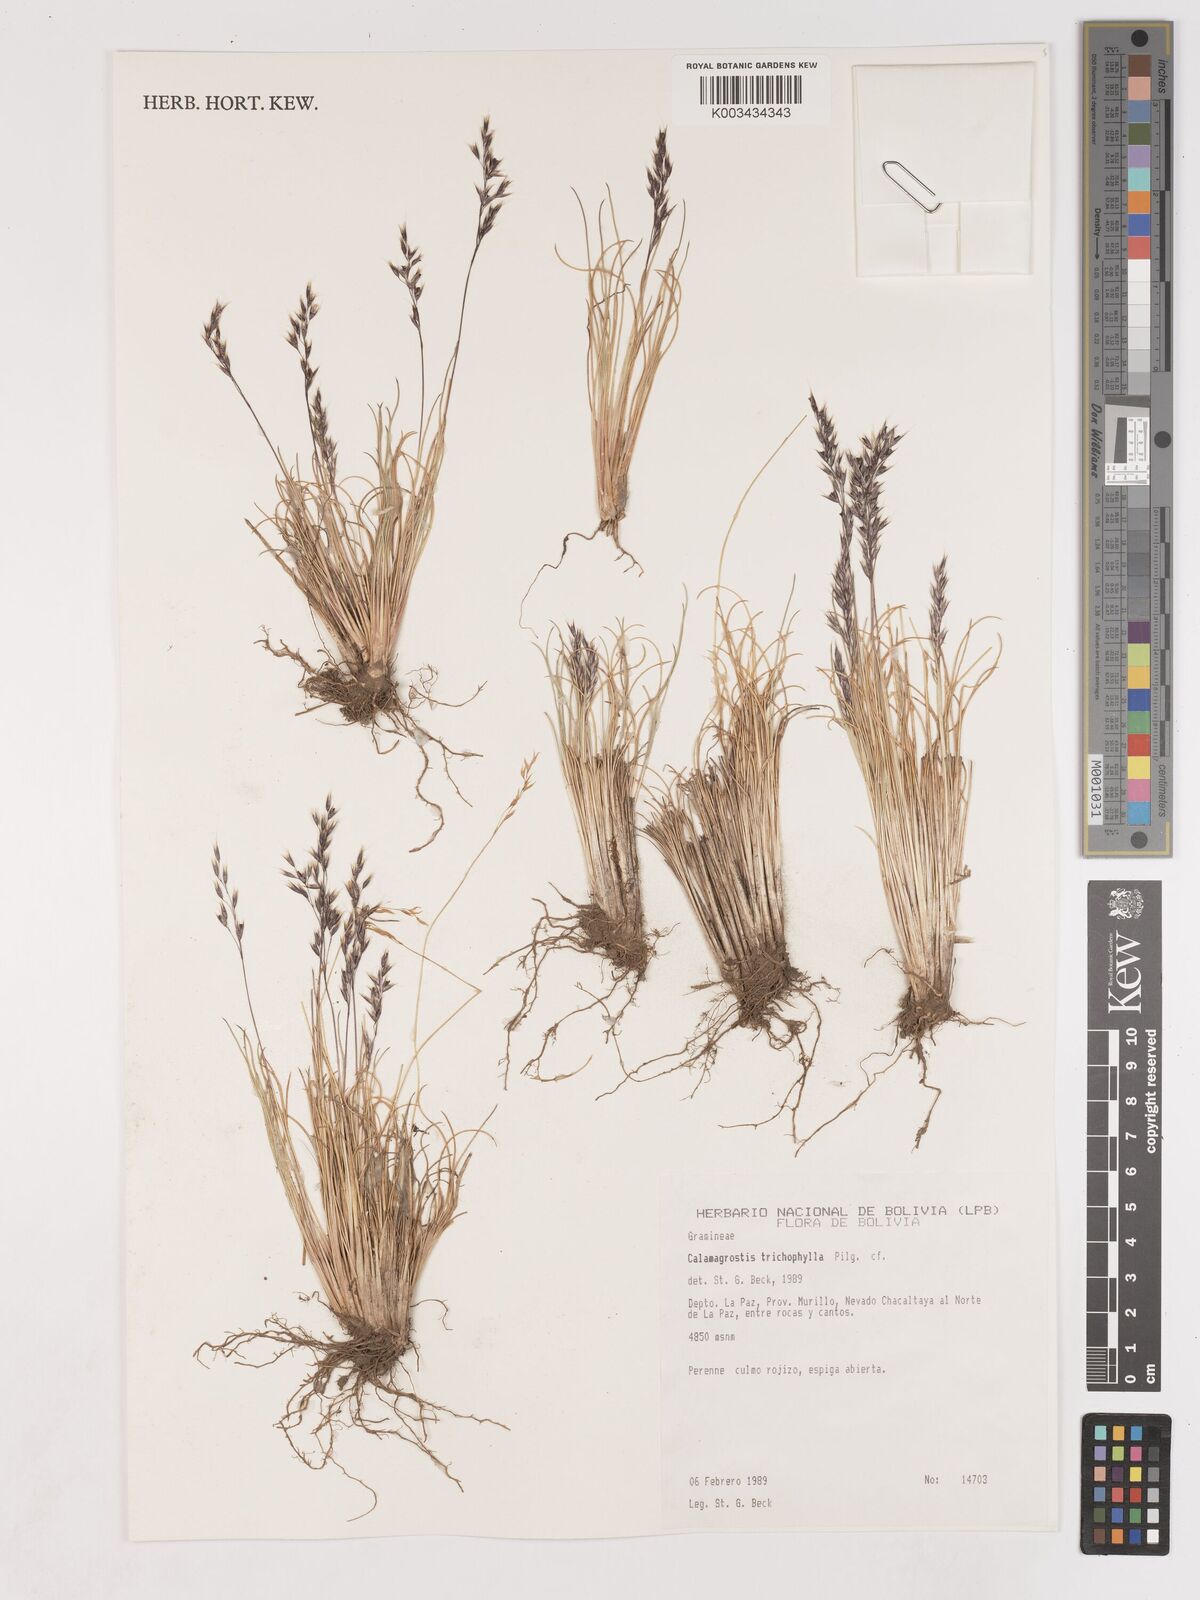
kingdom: Plantae
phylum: Tracheophyta
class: Liliopsida
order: Poales
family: Poaceae
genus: Cinnagrostis
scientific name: Cinnagrostis violacea
